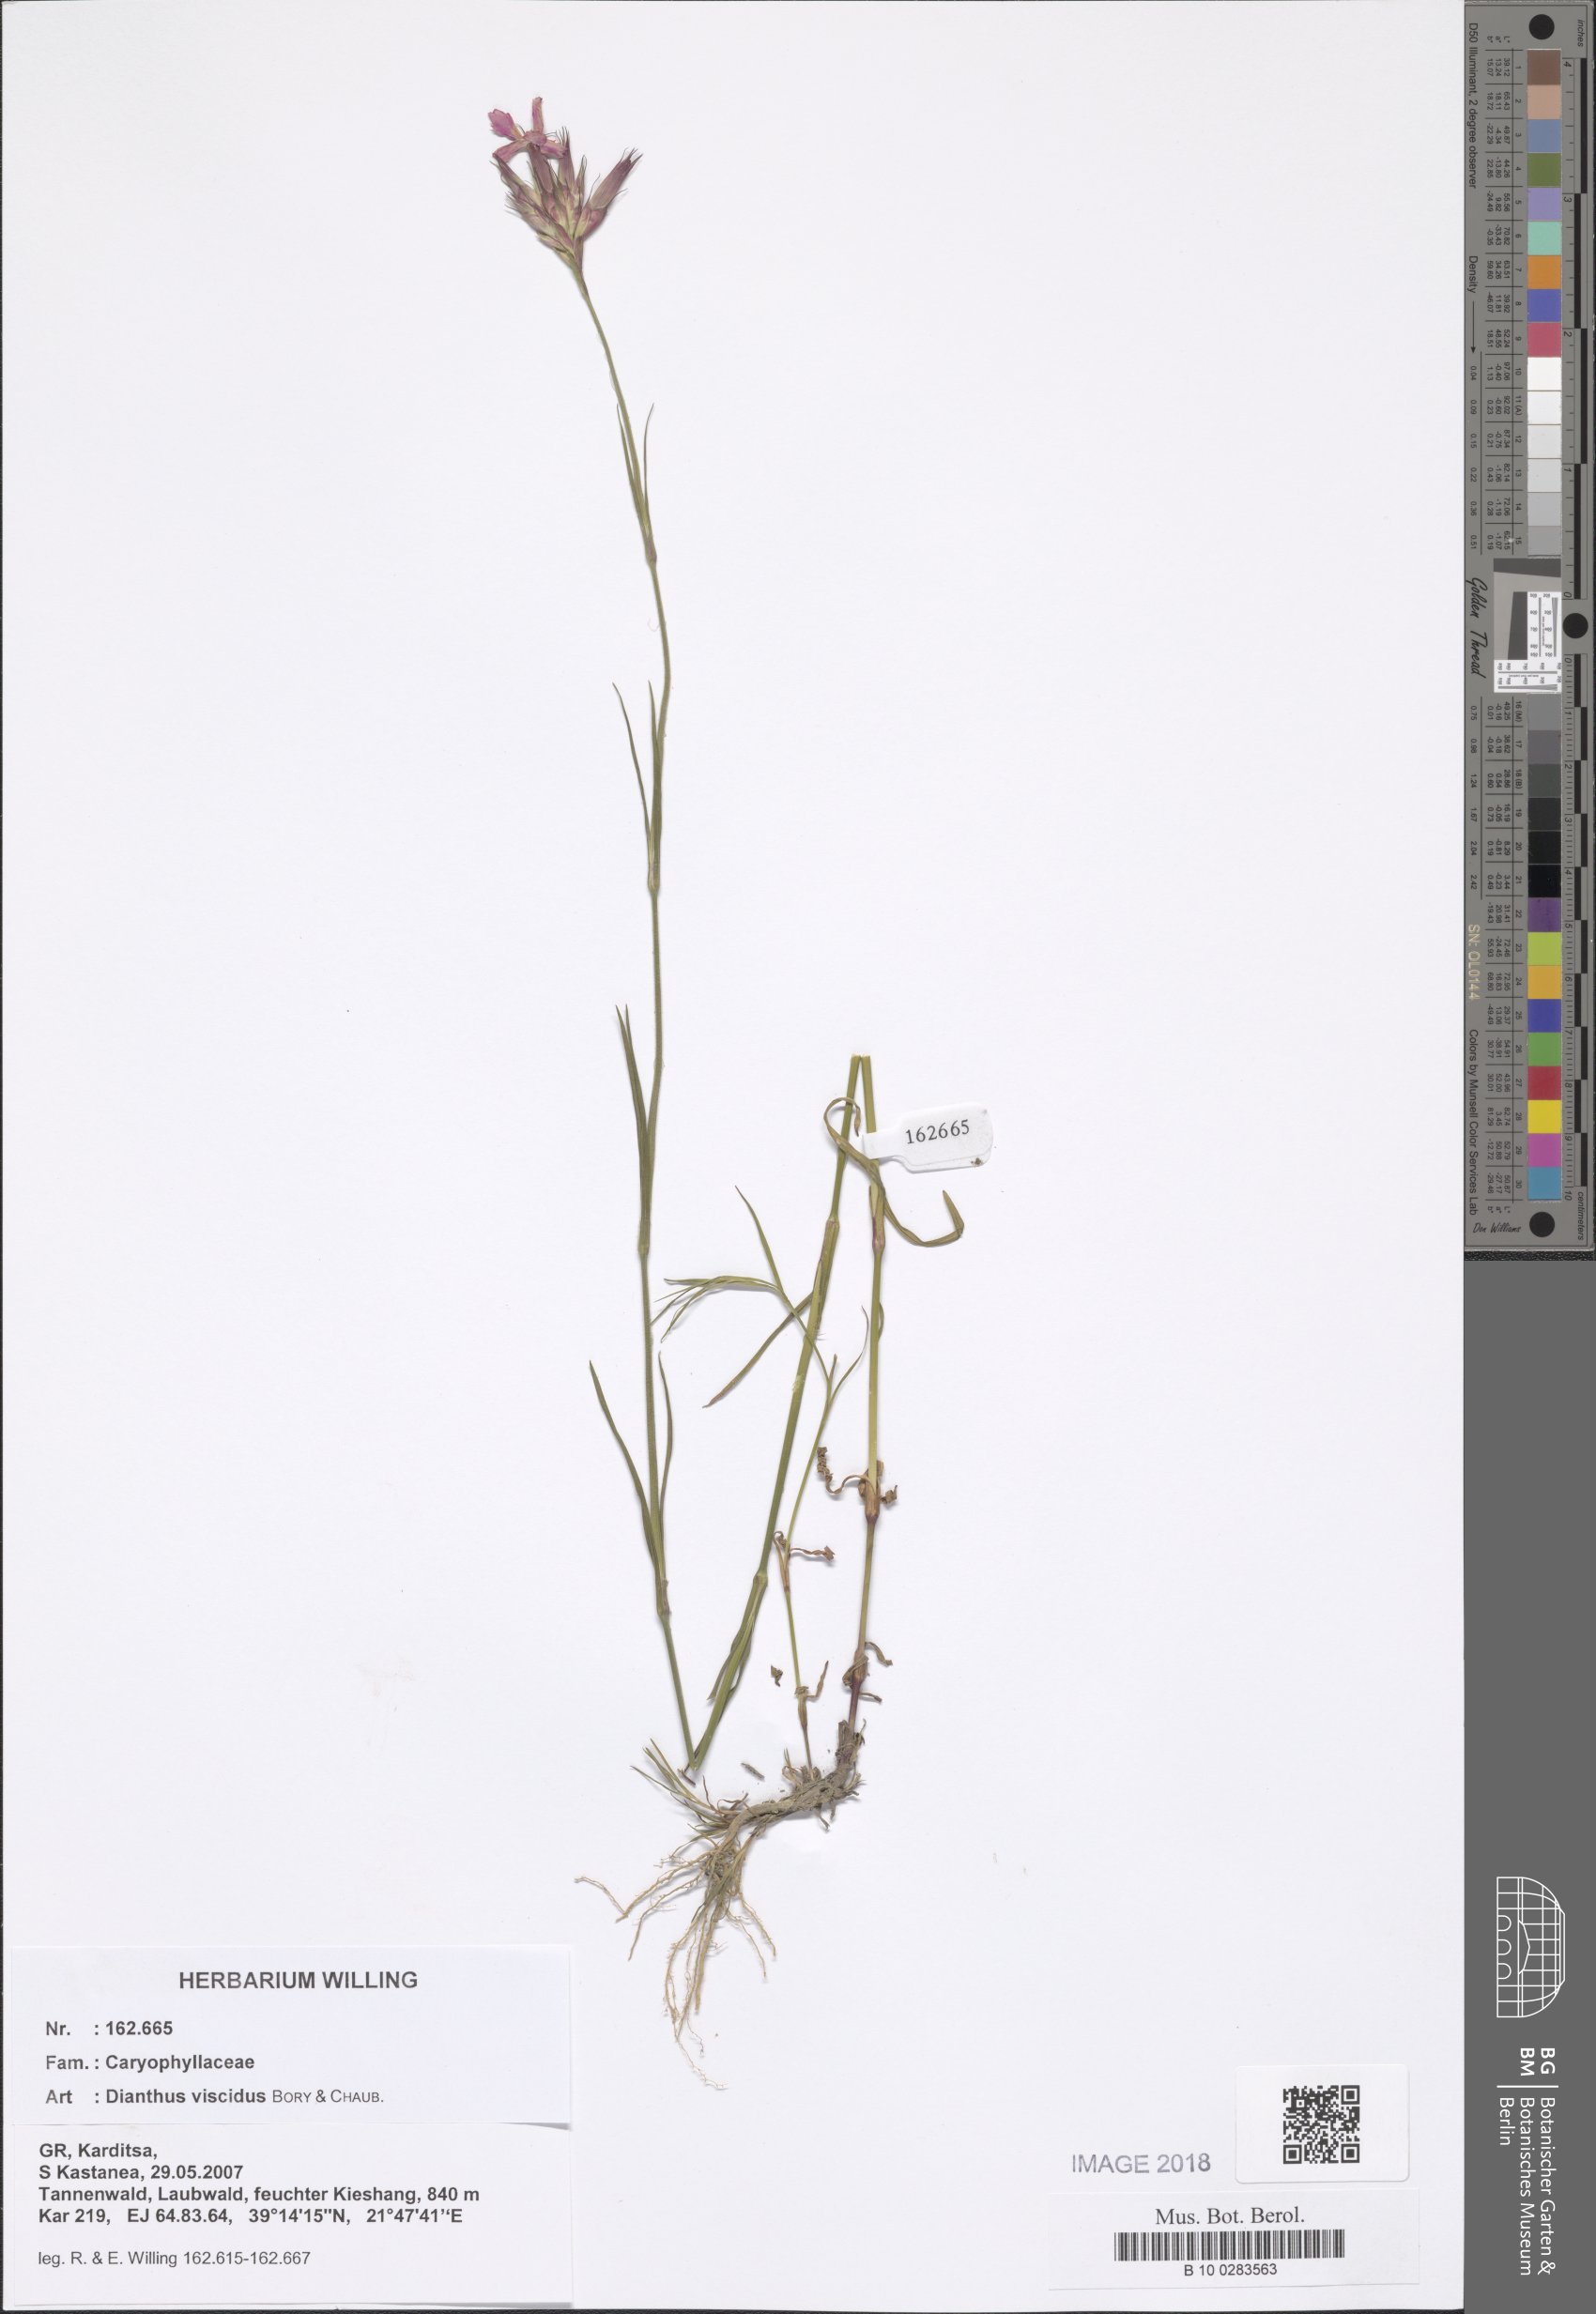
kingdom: Plantae
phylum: Tracheophyta
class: Magnoliopsida
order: Caryophyllales
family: Caryophyllaceae
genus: Dianthus
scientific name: Dianthus viscidus
